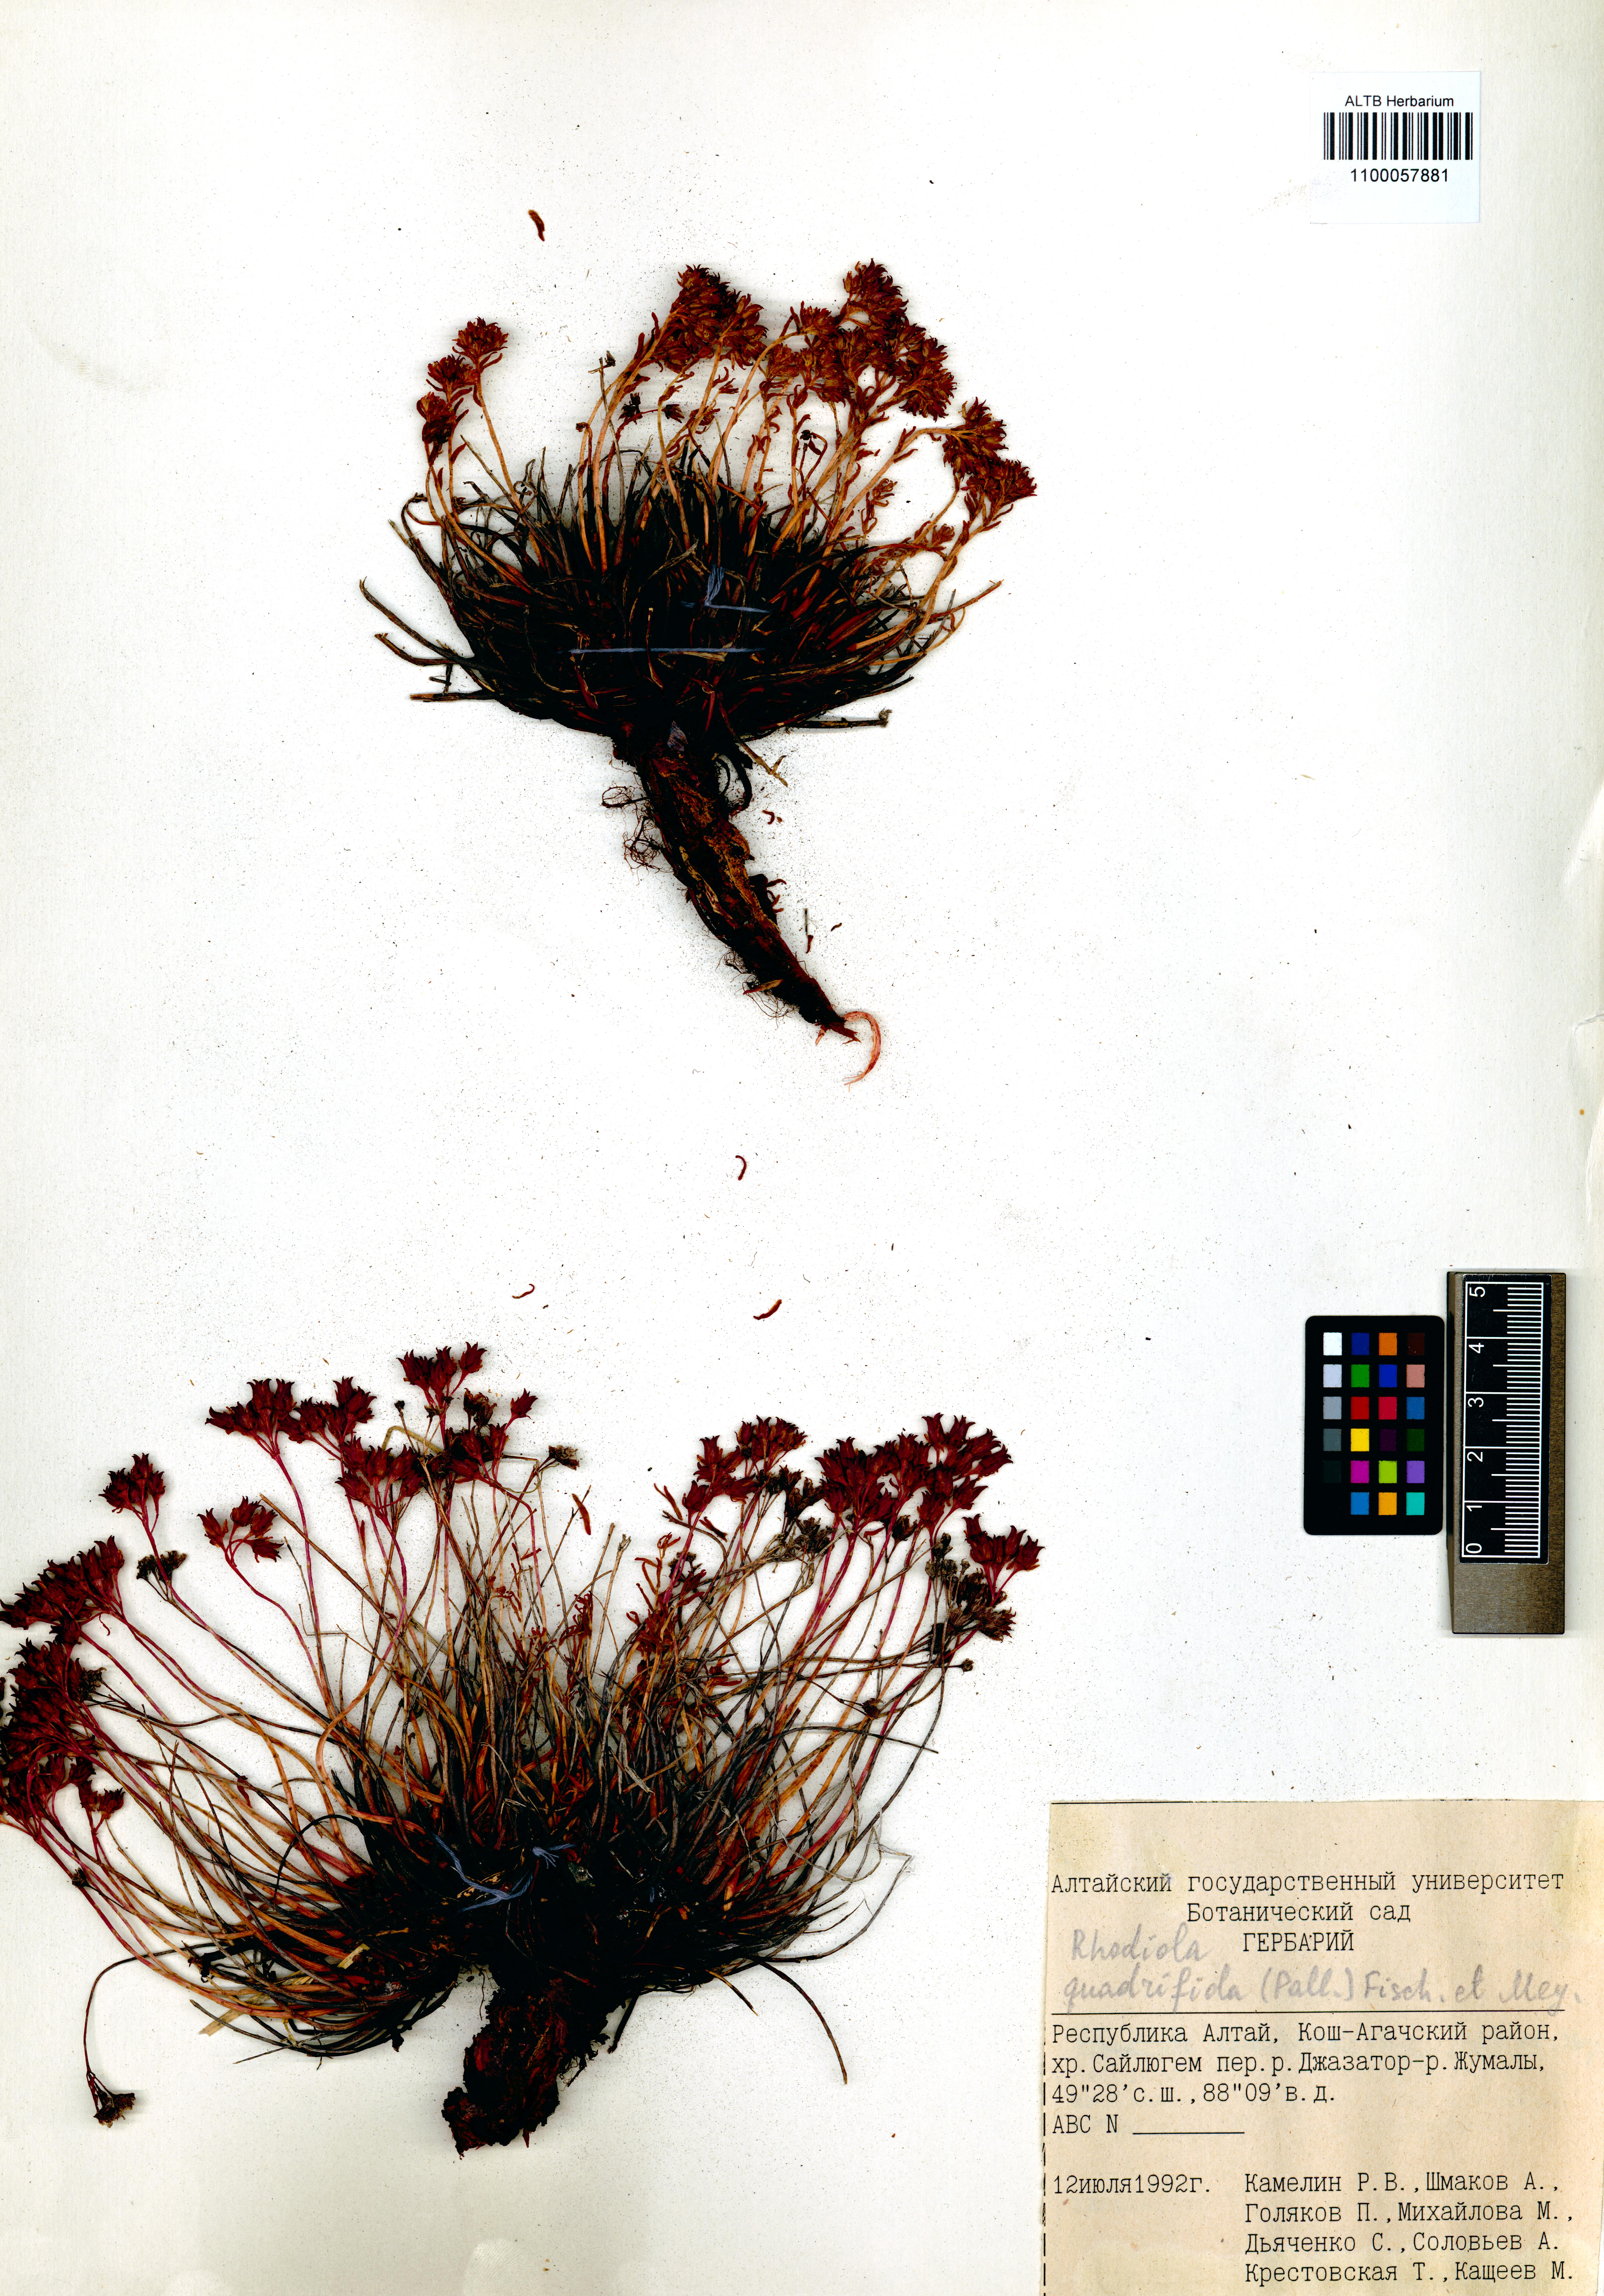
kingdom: Plantae
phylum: Tracheophyta
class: Magnoliopsida
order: Saxifragales
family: Crassulaceae
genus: Rhodiola
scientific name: Rhodiola quadrifida
